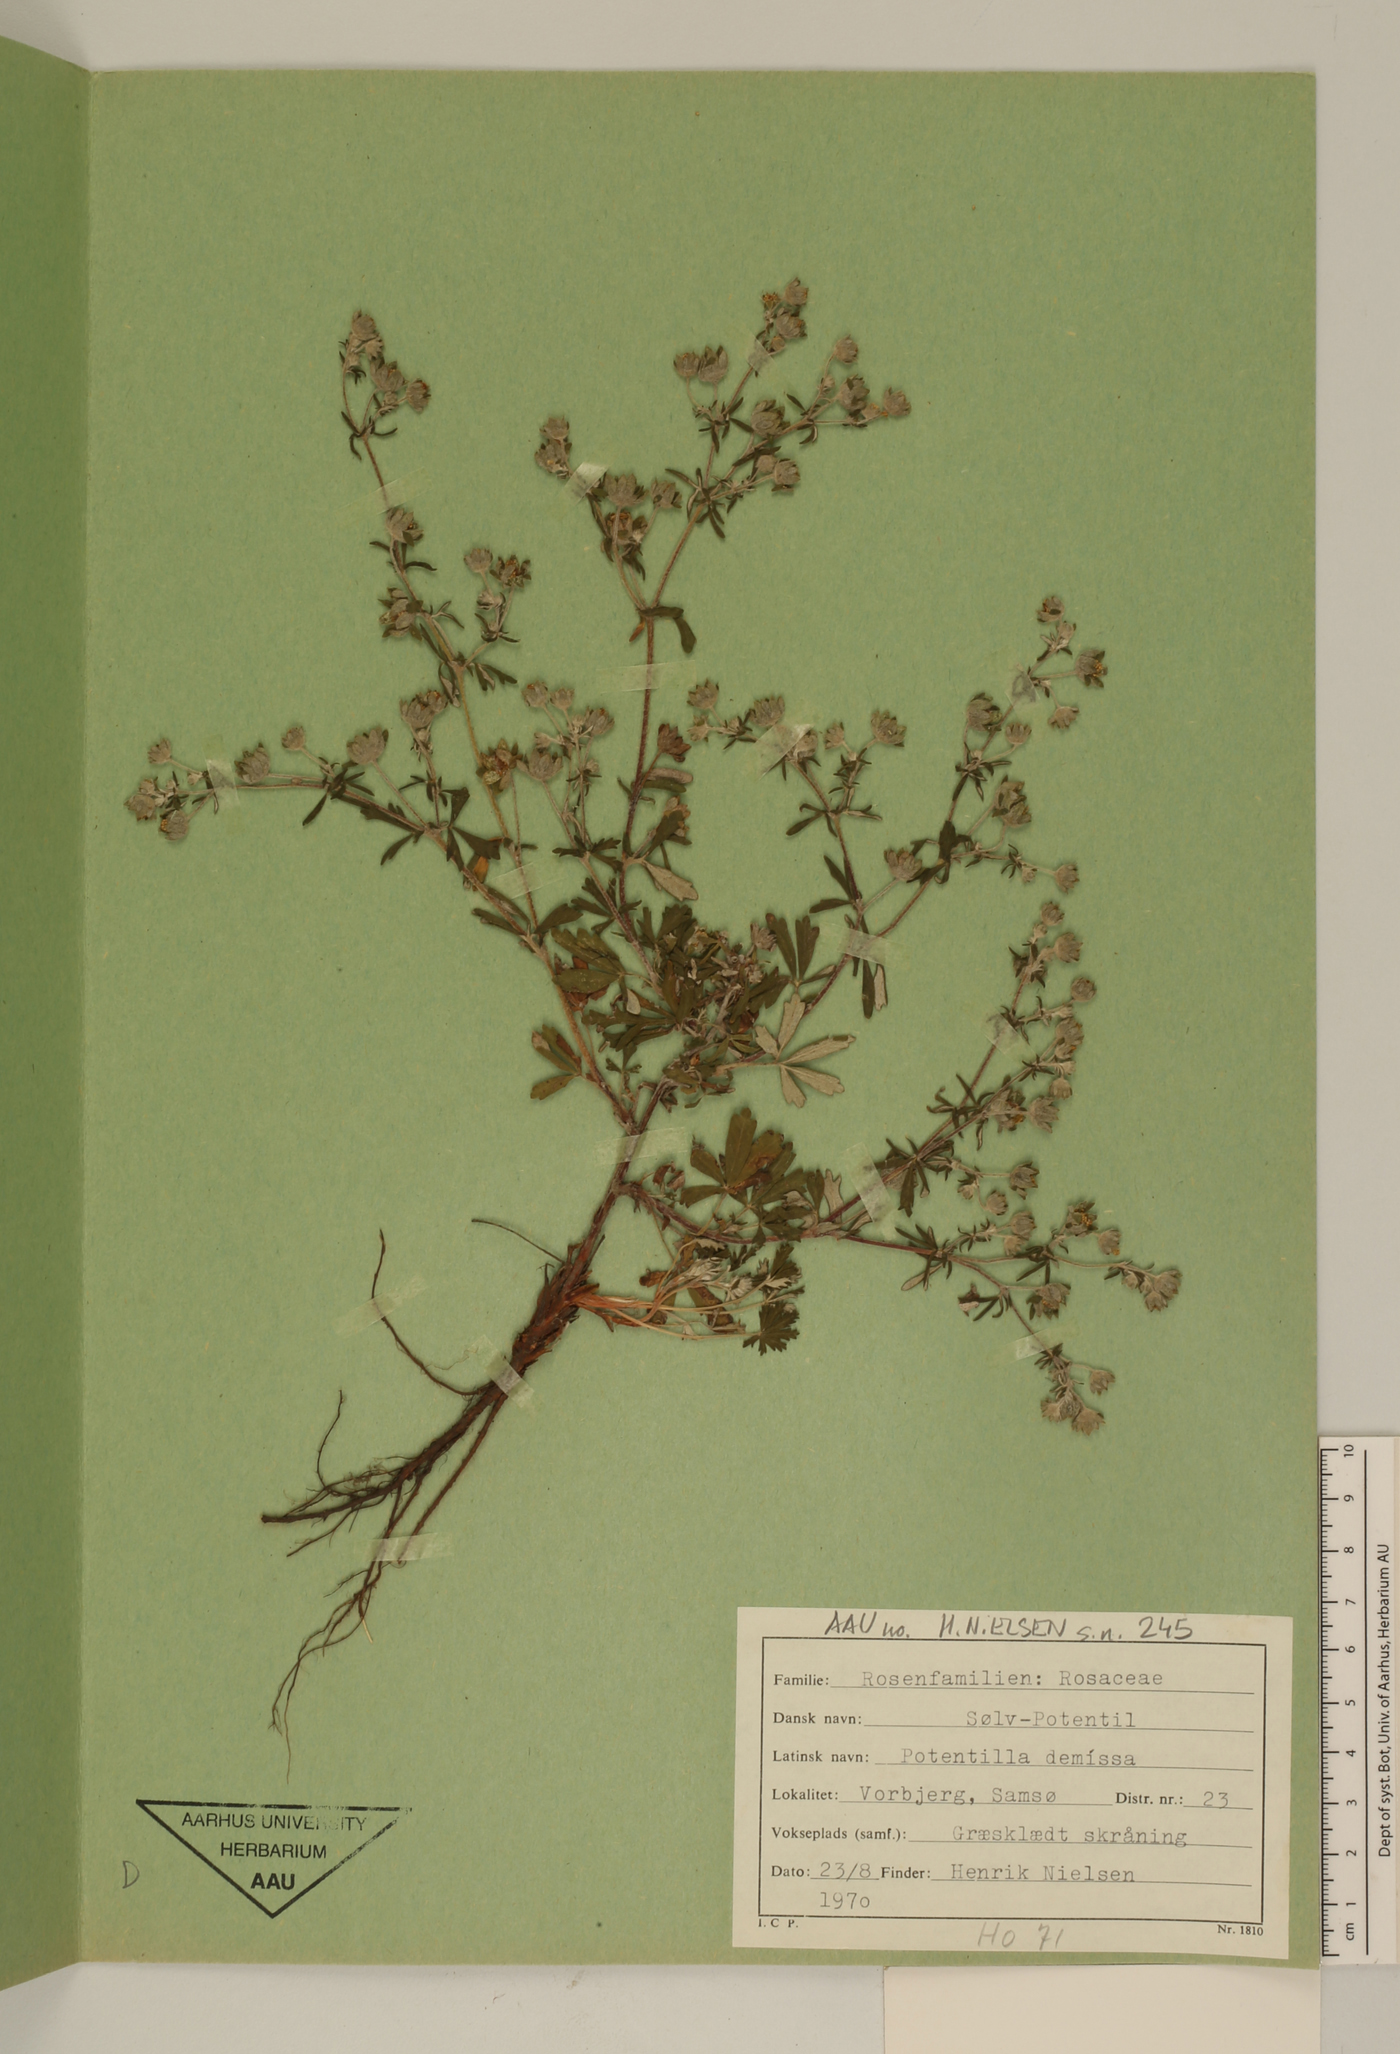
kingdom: Plantae
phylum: Tracheophyta
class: Magnoliopsida
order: Rosales
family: Rosaceae
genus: Potentilla
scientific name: Potentilla argentea
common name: Hoary cinquefoil
